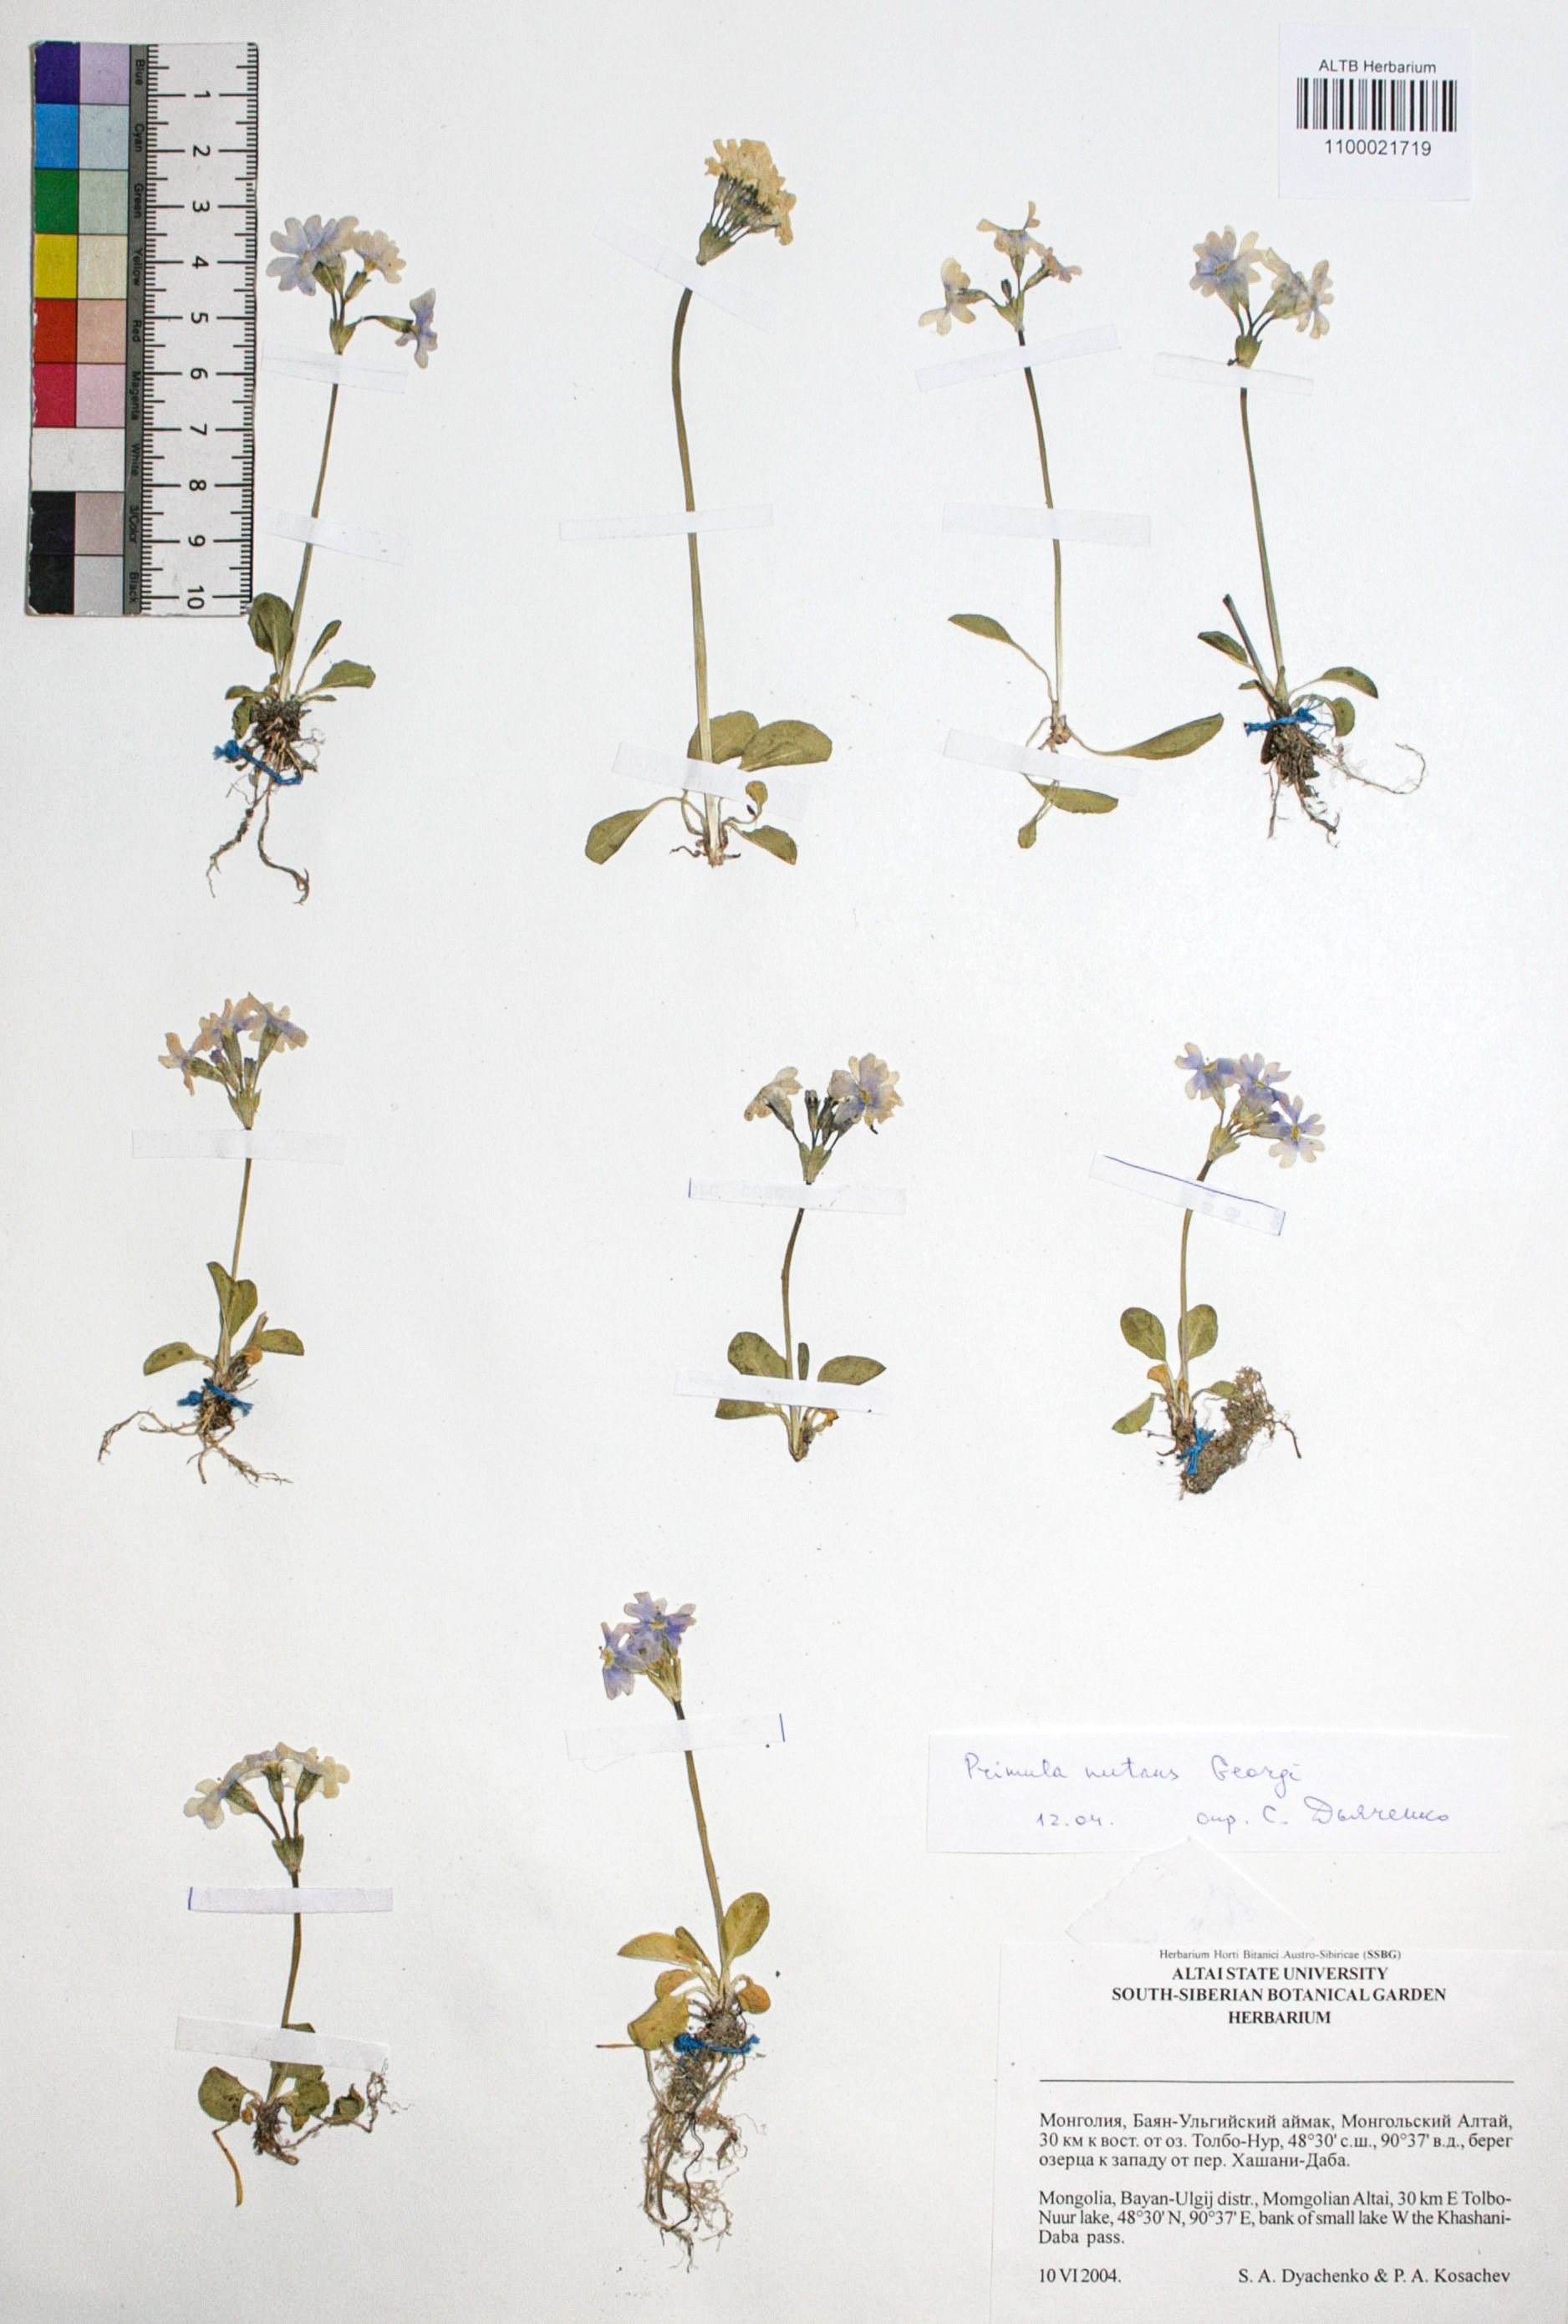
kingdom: Plantae
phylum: Tracheophyta
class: Magnoliopsida
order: Ericales
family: Primulaceae
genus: Primula
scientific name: Primula nutans
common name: Siberian primrose
